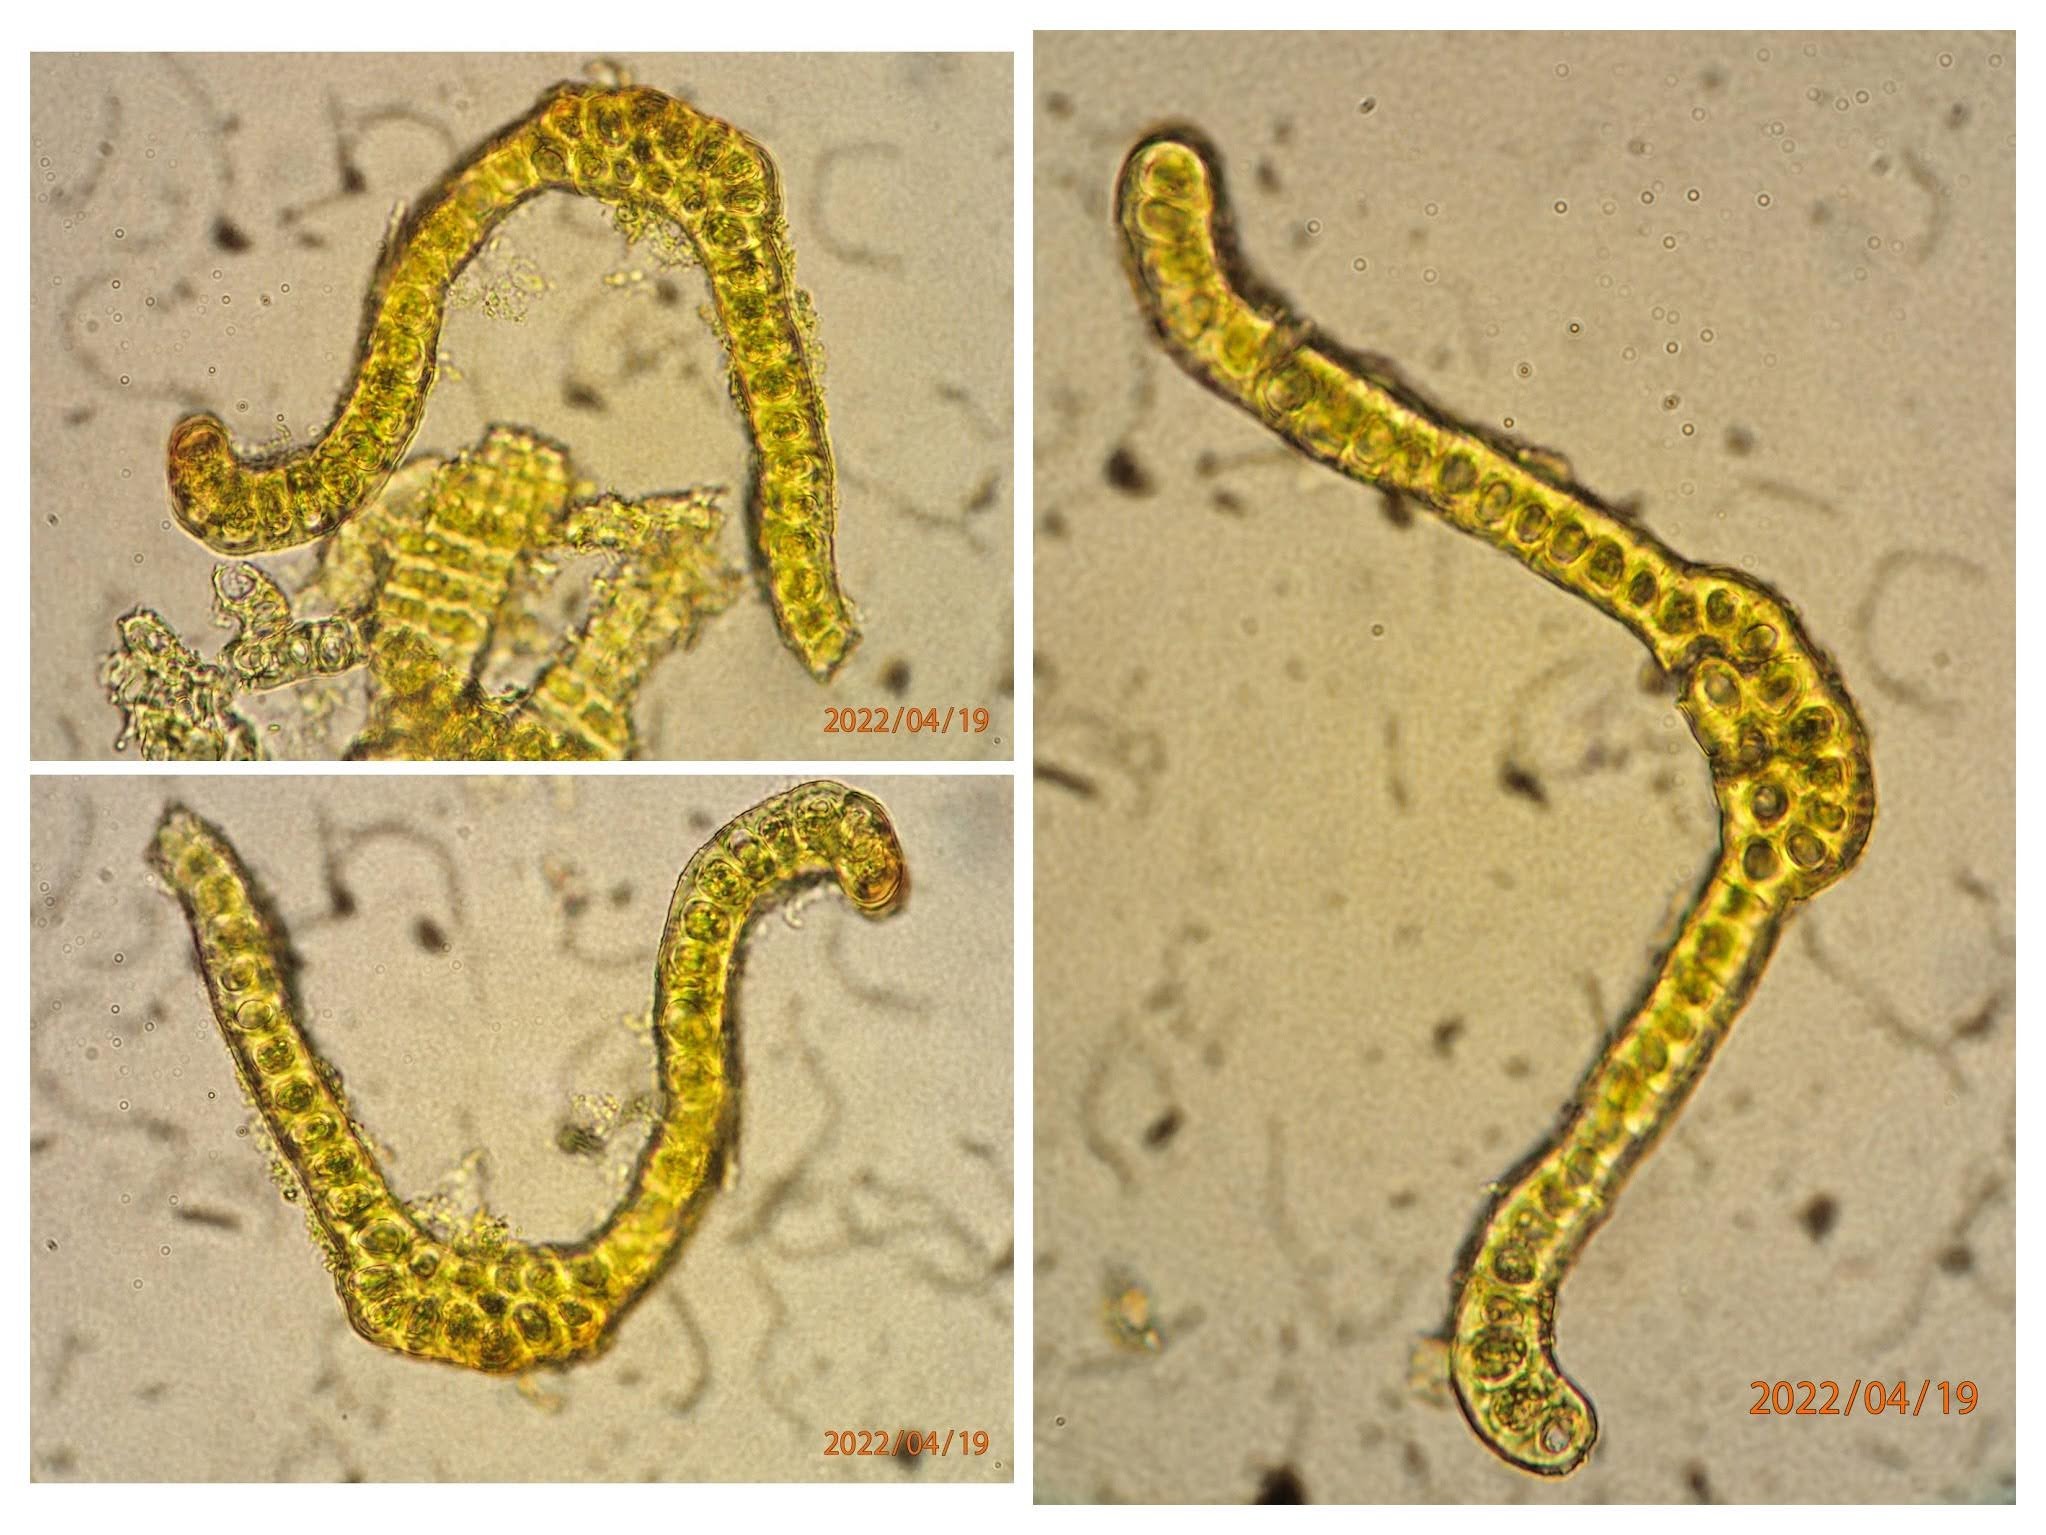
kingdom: Plantae
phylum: Bryophyta
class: Bryopsida
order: Grimmiales
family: Grimmiaceae
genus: Bucklandiella
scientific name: Bucklandiella obtusa
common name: Kyst-børstemos
